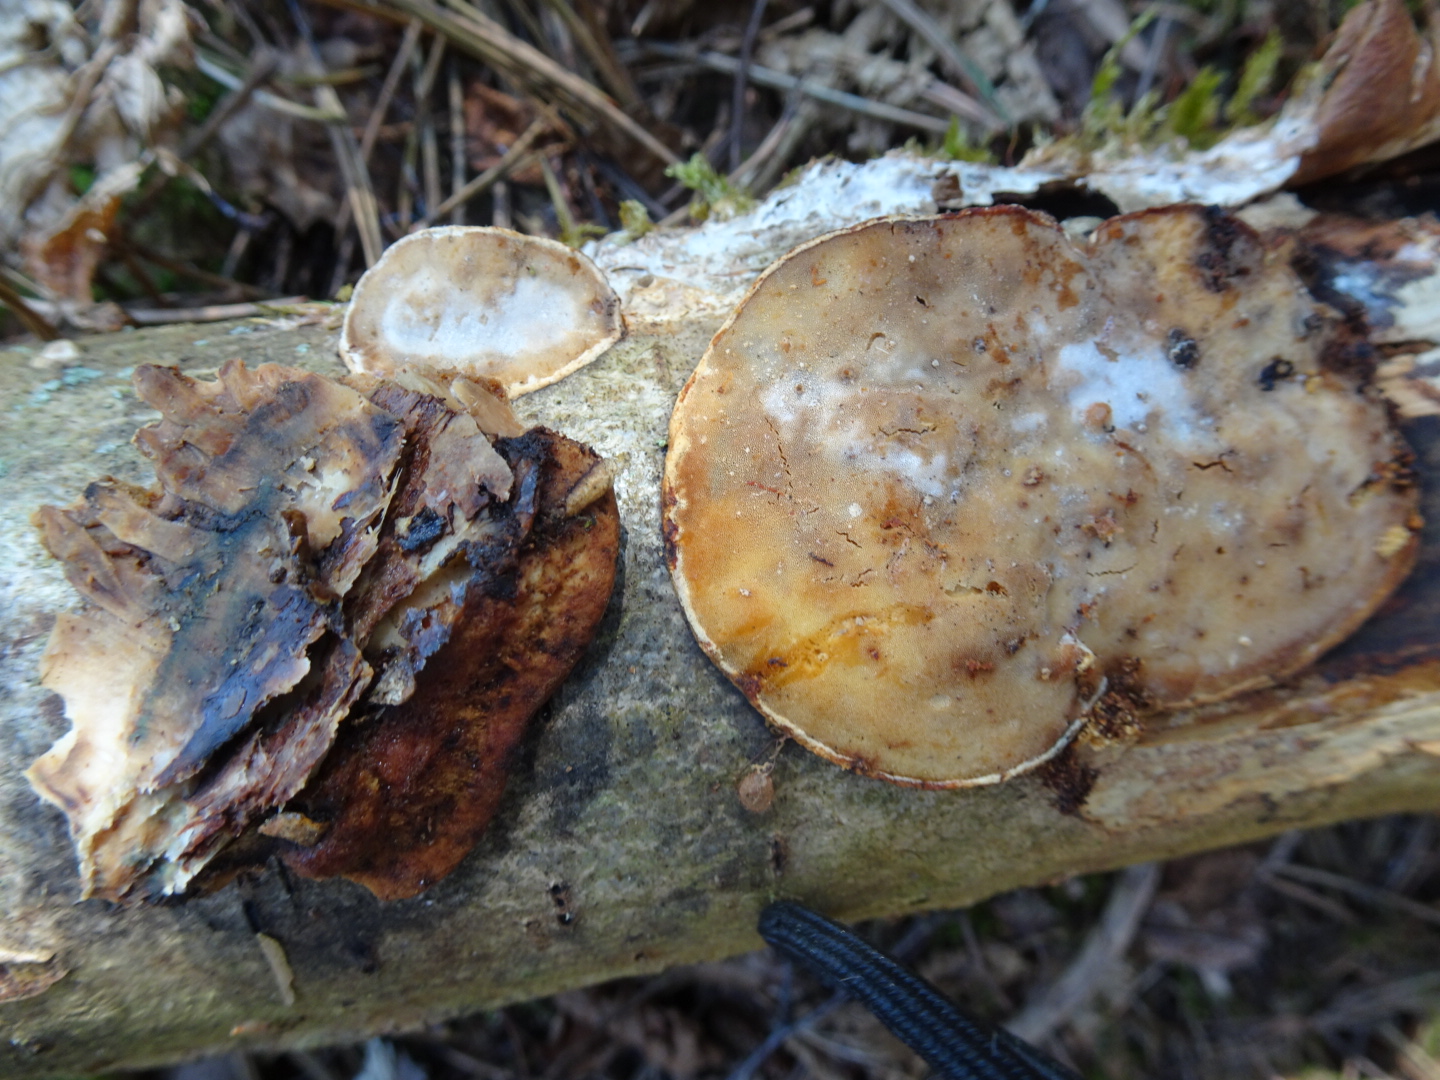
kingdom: Fungi
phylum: Basidiomycota
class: Agaricomycetes
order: Polyporales
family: Incrustoporiaceae
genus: Skeletocutis
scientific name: Skeletocutis nemoralis
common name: stor krystalporesvamp
